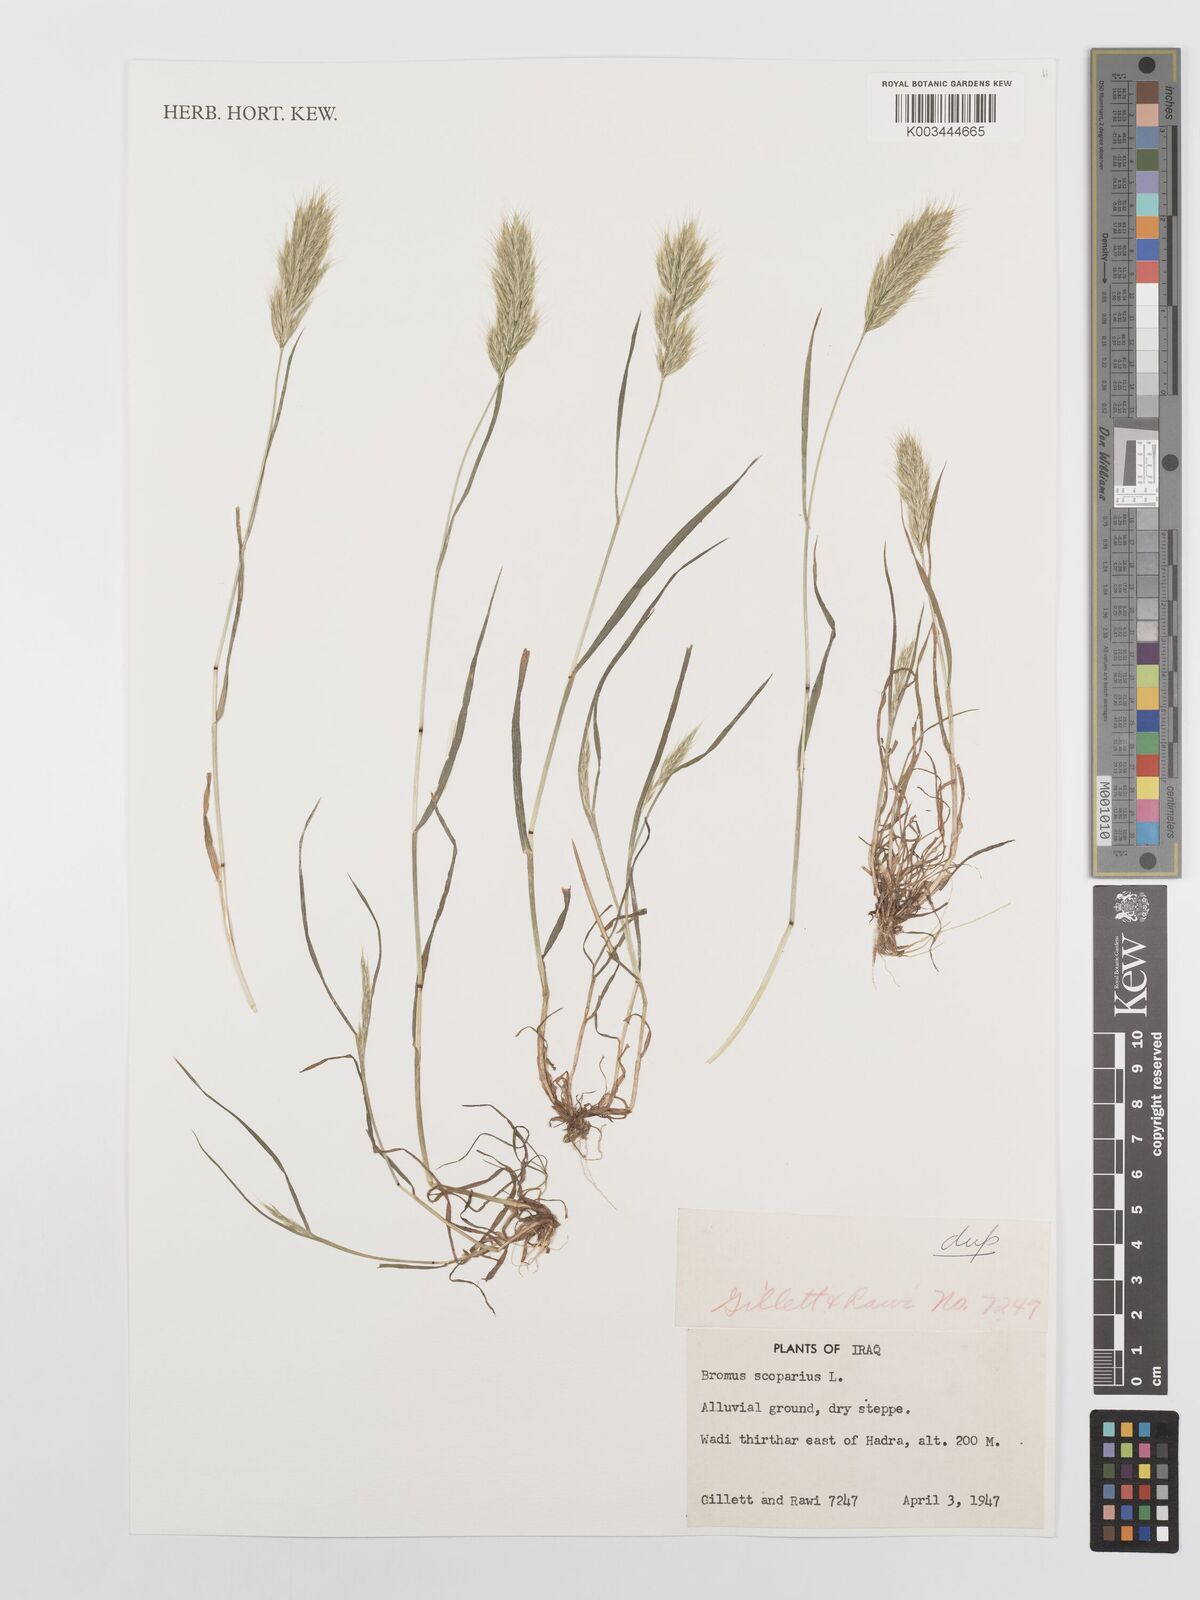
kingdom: Plantae
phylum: Tracheophyta
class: Liliopsida
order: Poales
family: Poaceae
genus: Bromus
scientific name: Bromus scoparius
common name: Broom brome
